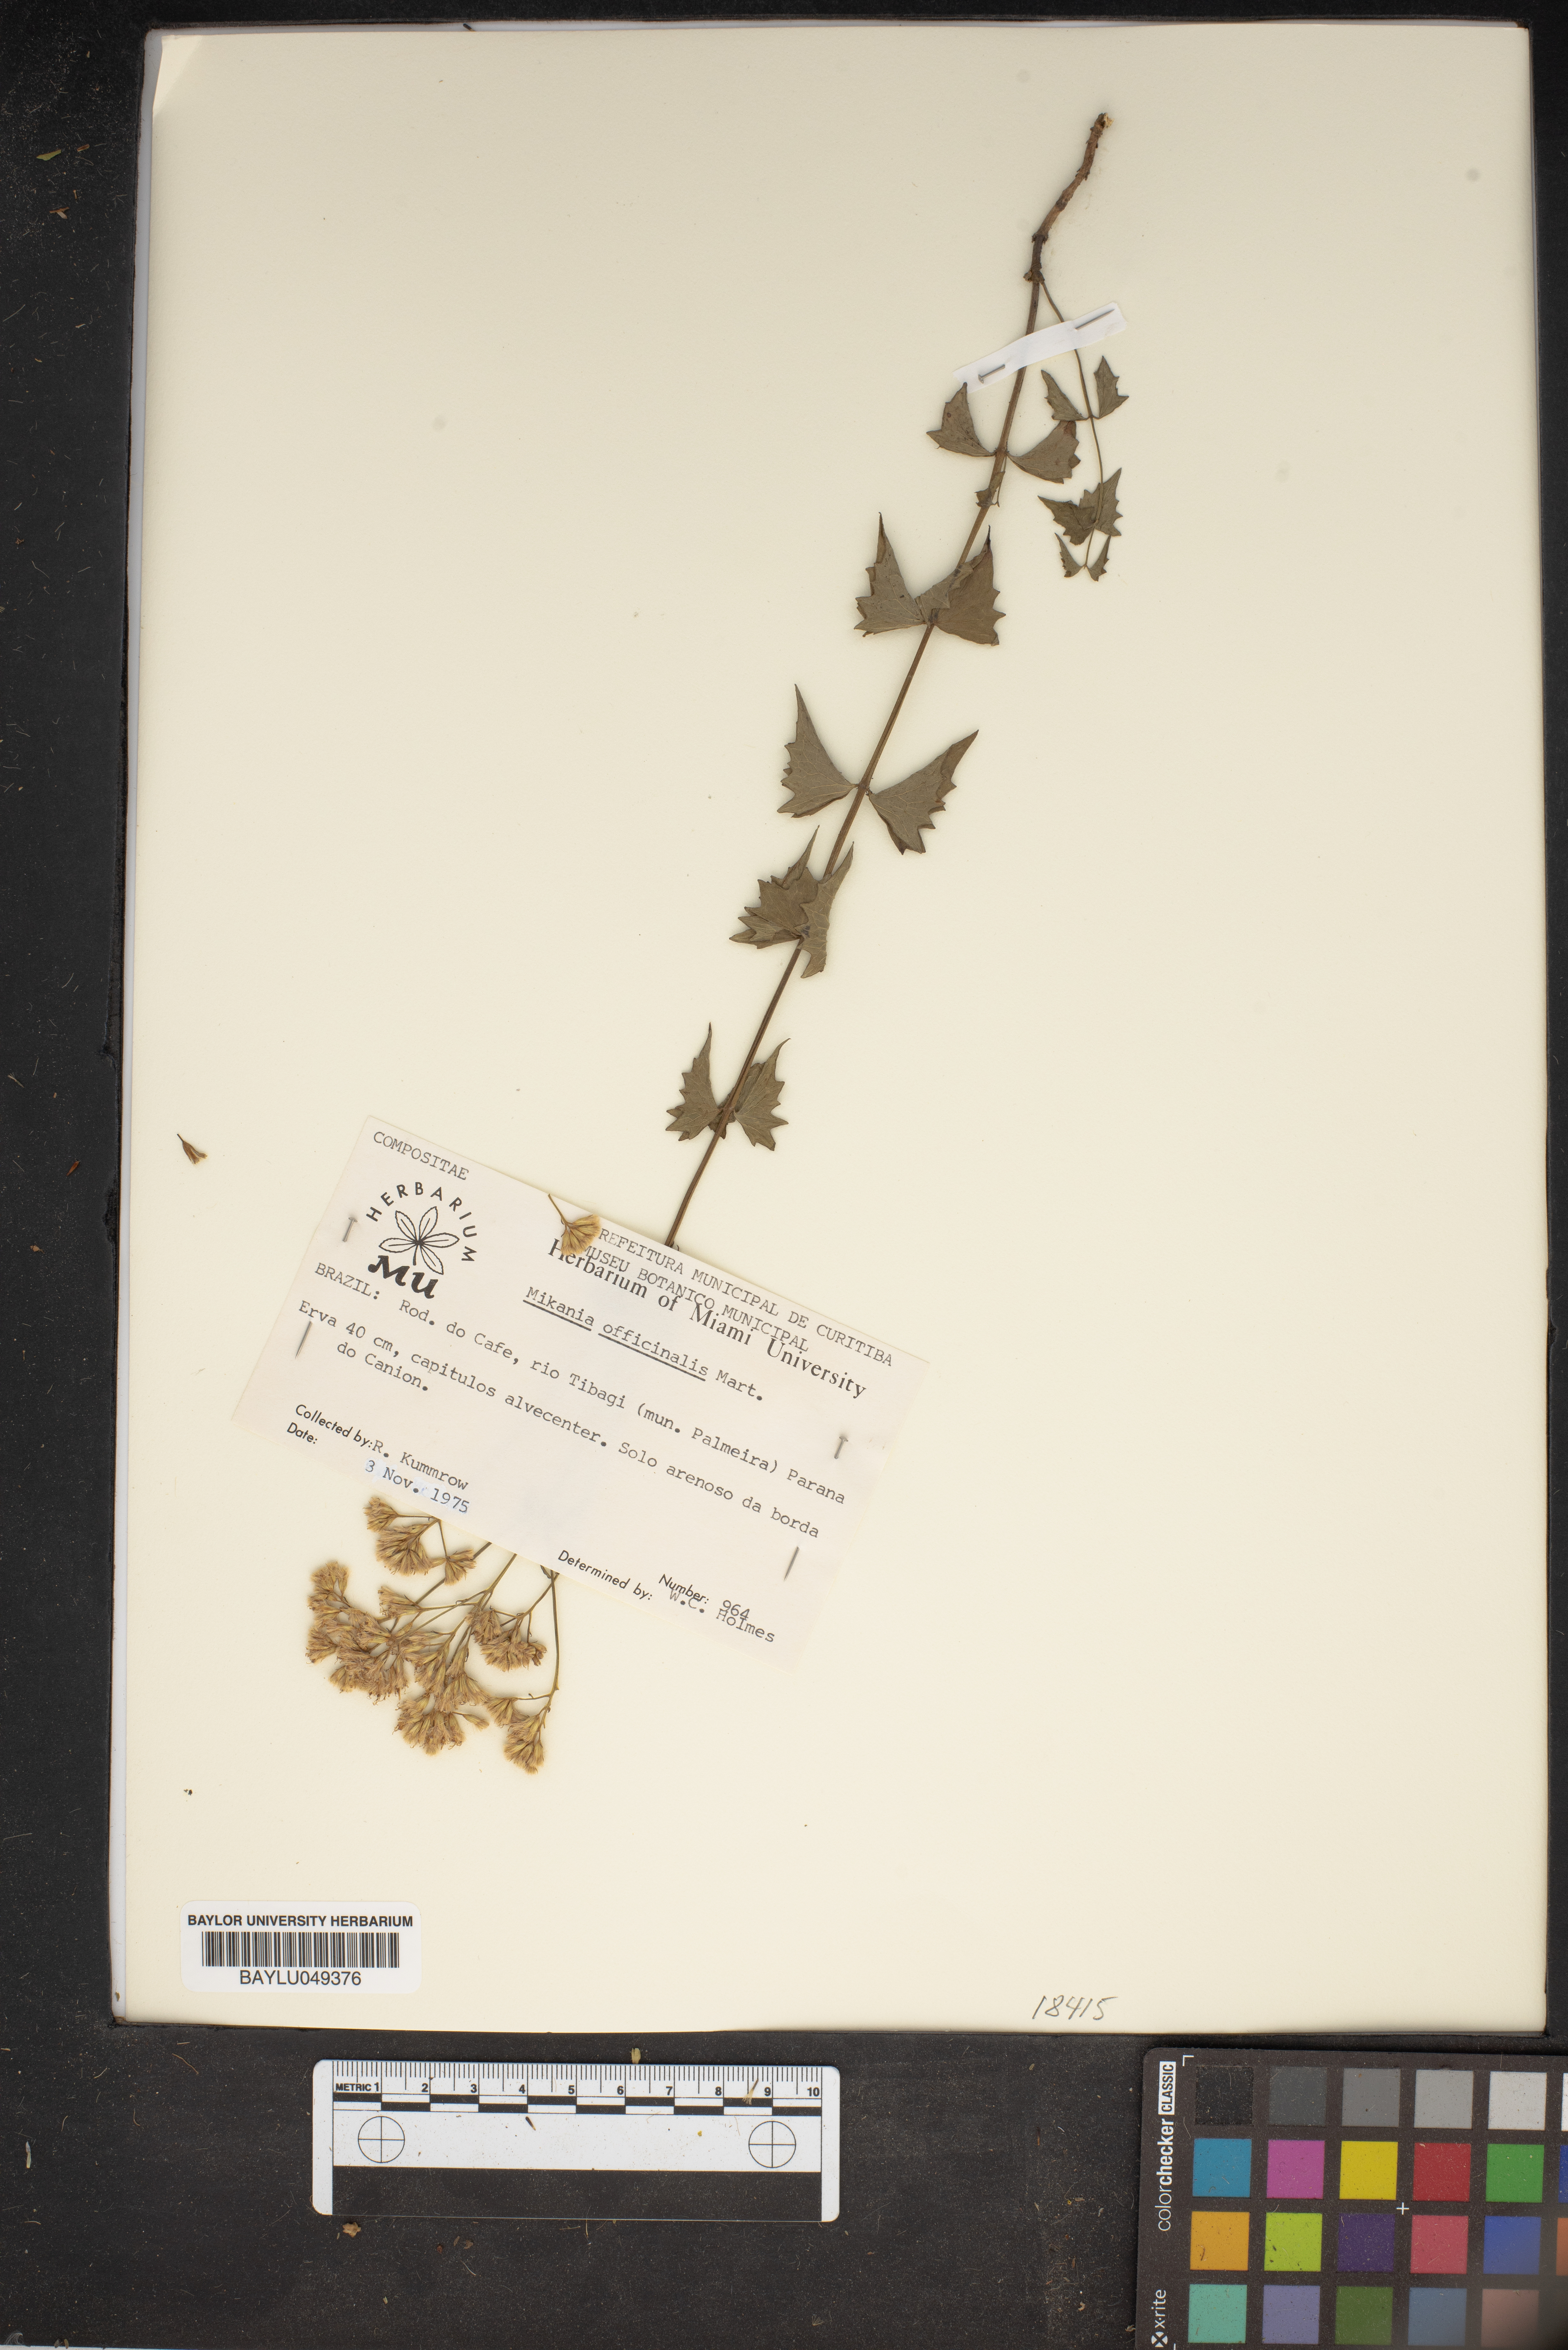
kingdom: Plantae
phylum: Tracheophyta
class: Magnoliopsida
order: Asterales
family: Asteraceae
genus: Mikania
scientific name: Mikania officinalis
